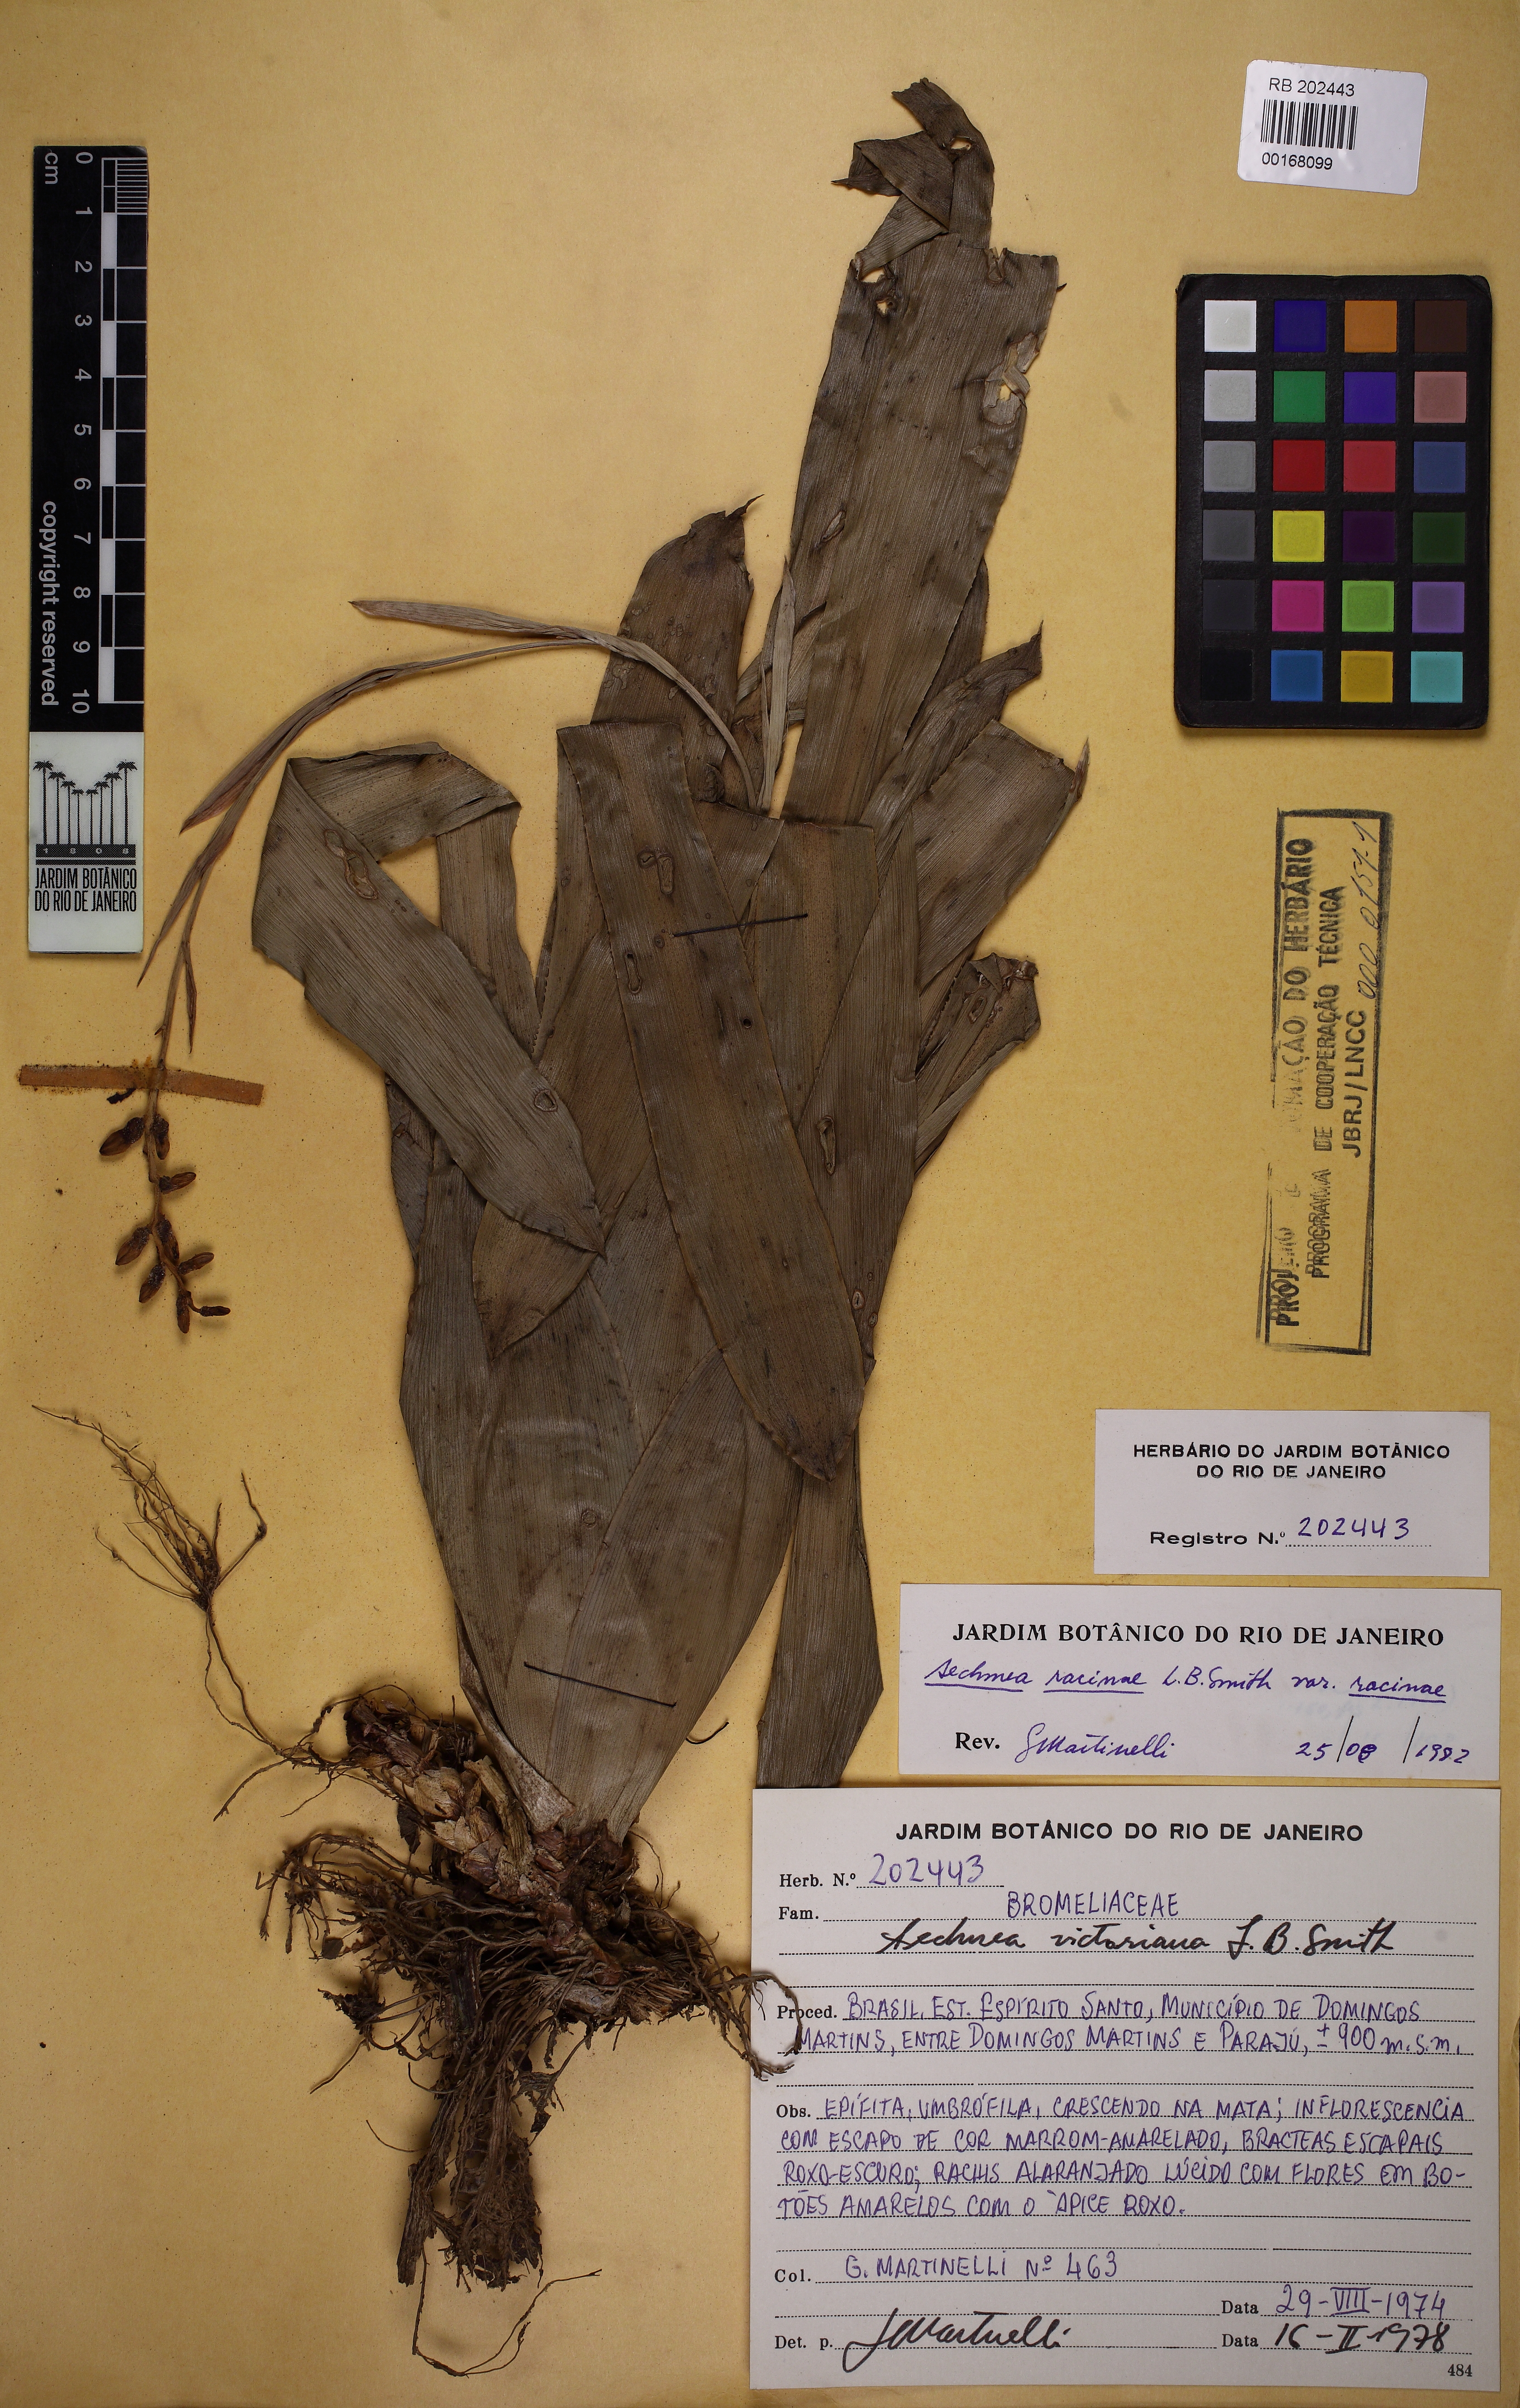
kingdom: Plantae
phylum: Tracheophyta
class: Liliopsida
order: Poales
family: Bromeliaceae
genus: Aechmea
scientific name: Aechmea racinae
